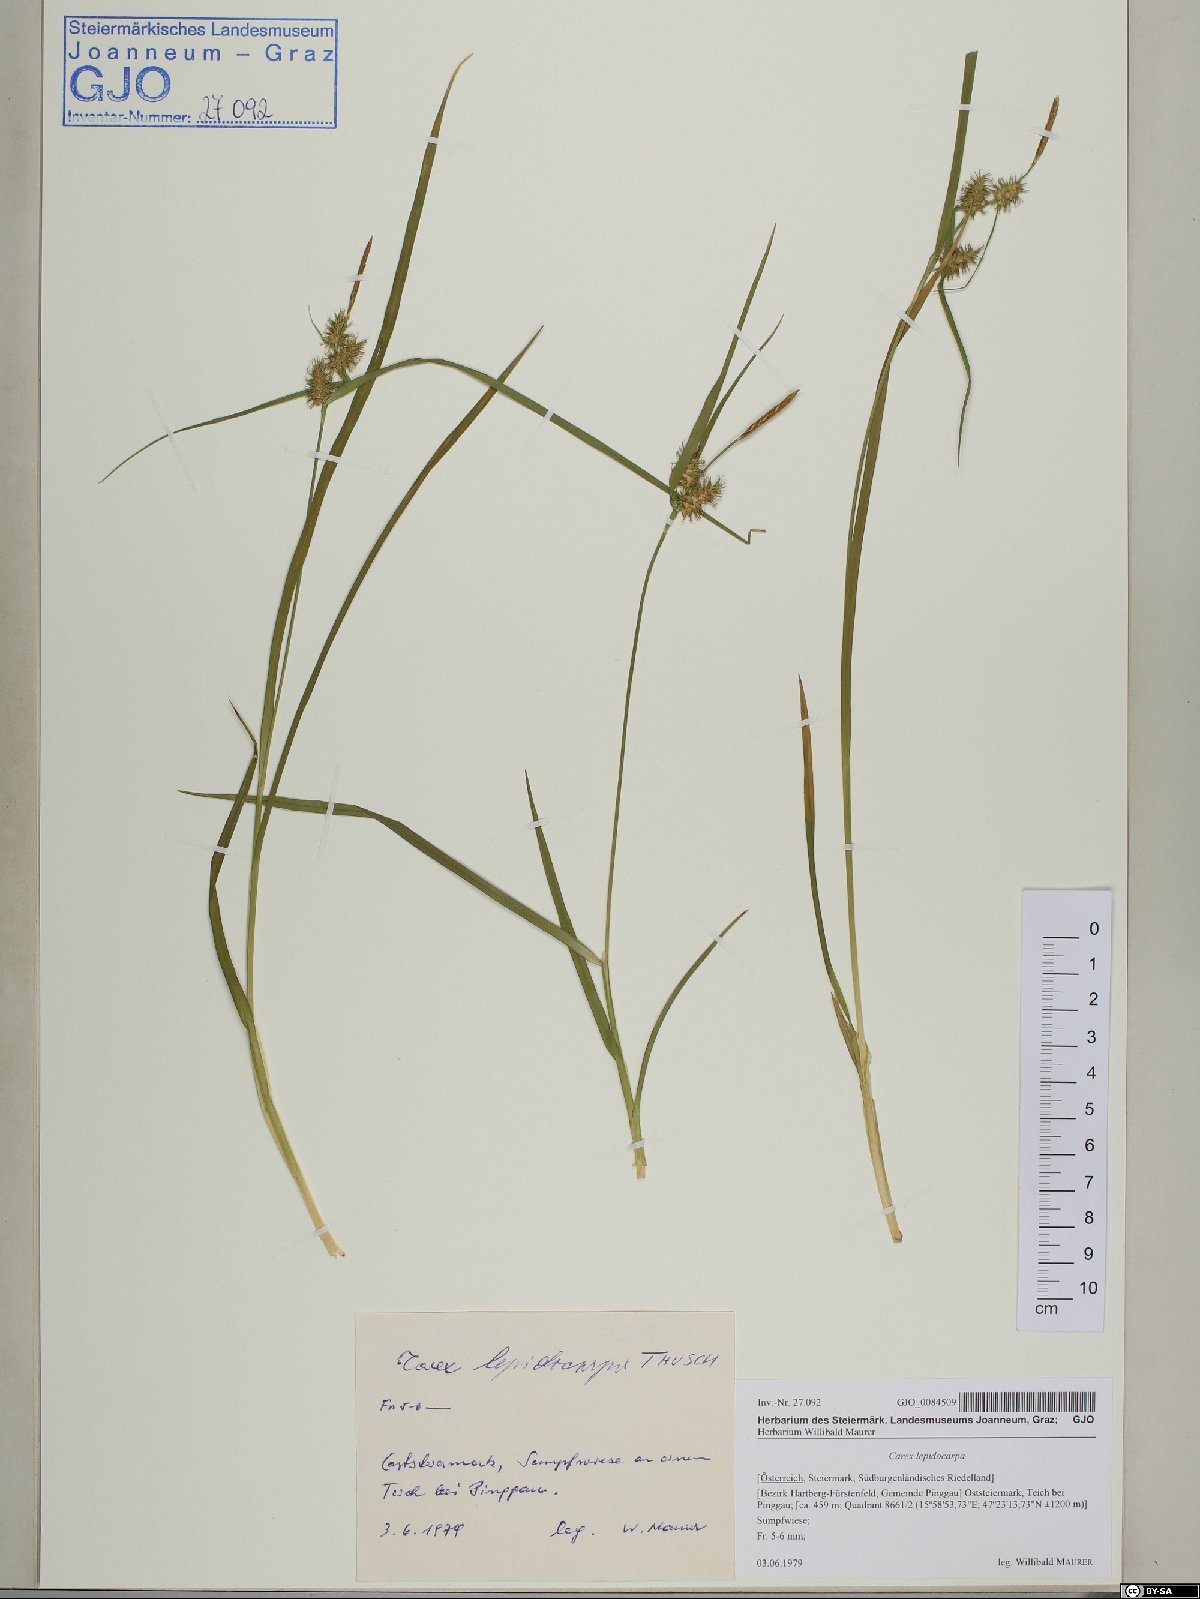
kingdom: Plantae
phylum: Tracheophyta
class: Liliopsida
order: Poales
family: Cyperaceae
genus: Carex
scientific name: Carex lepidocarpa
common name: Long-stalked yellow-sedge
